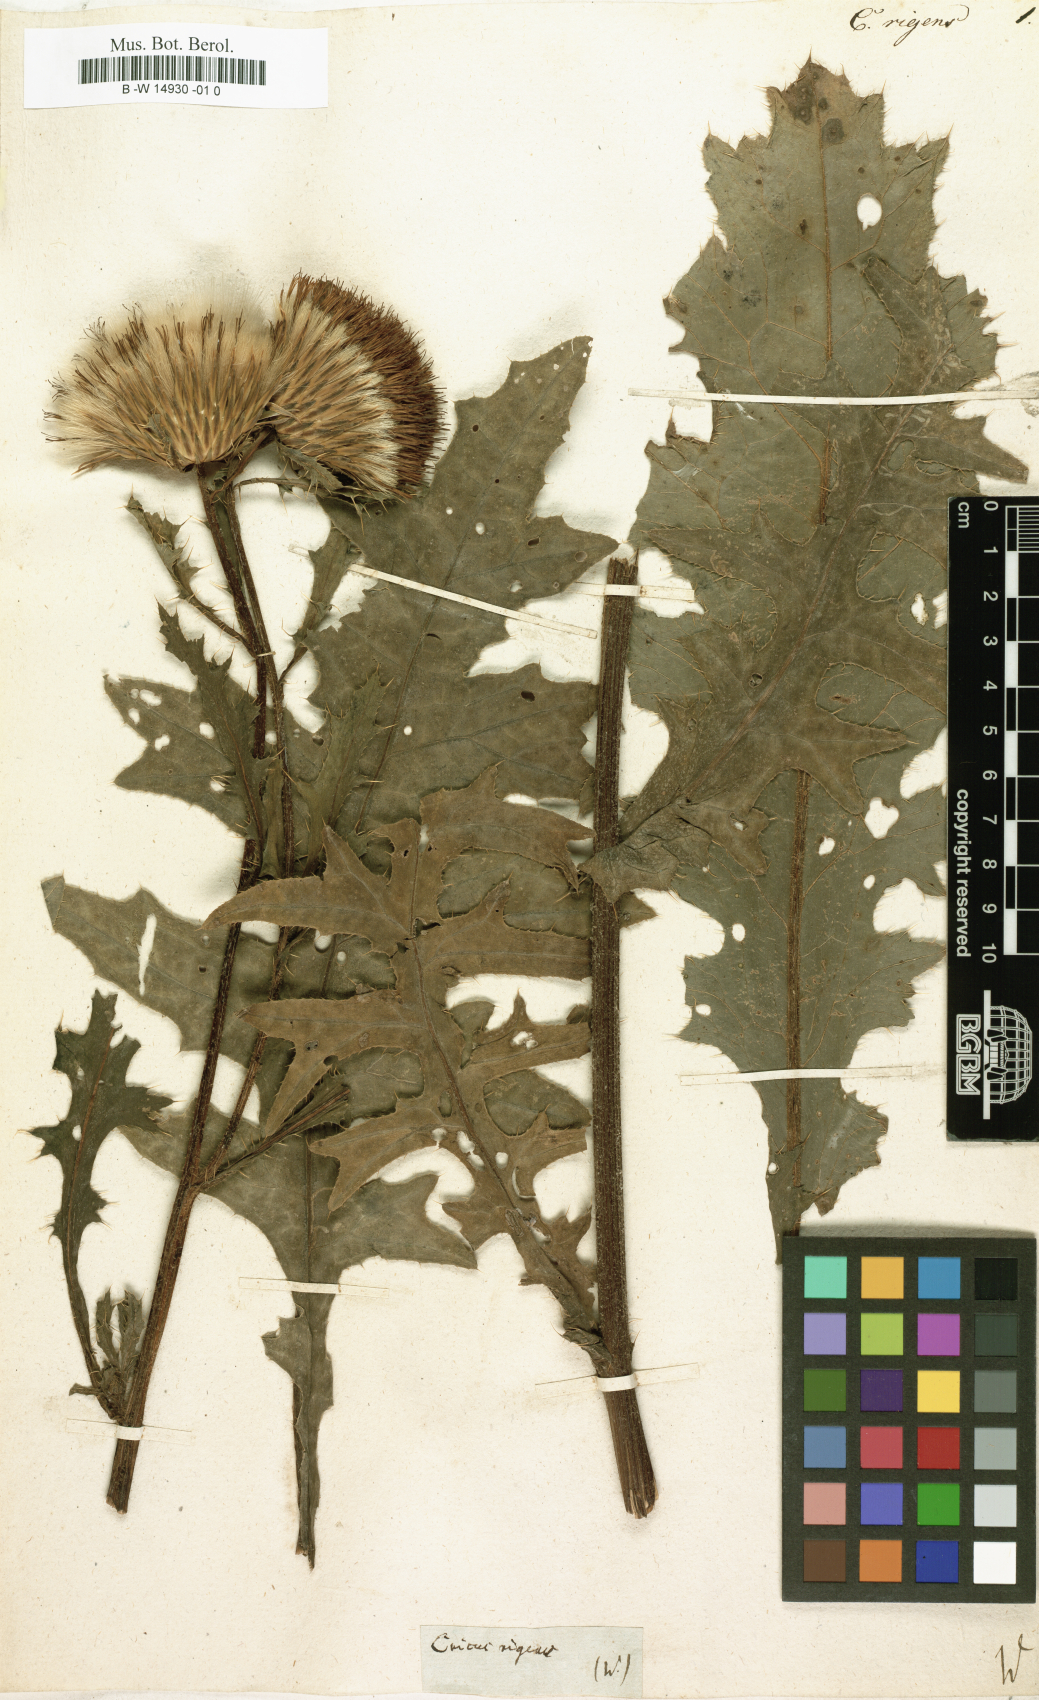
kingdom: Plantae
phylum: Tracheophyta
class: Magnoliopsida
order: Asterales
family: Asteraceae
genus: Cirsium
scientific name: Cirsium
